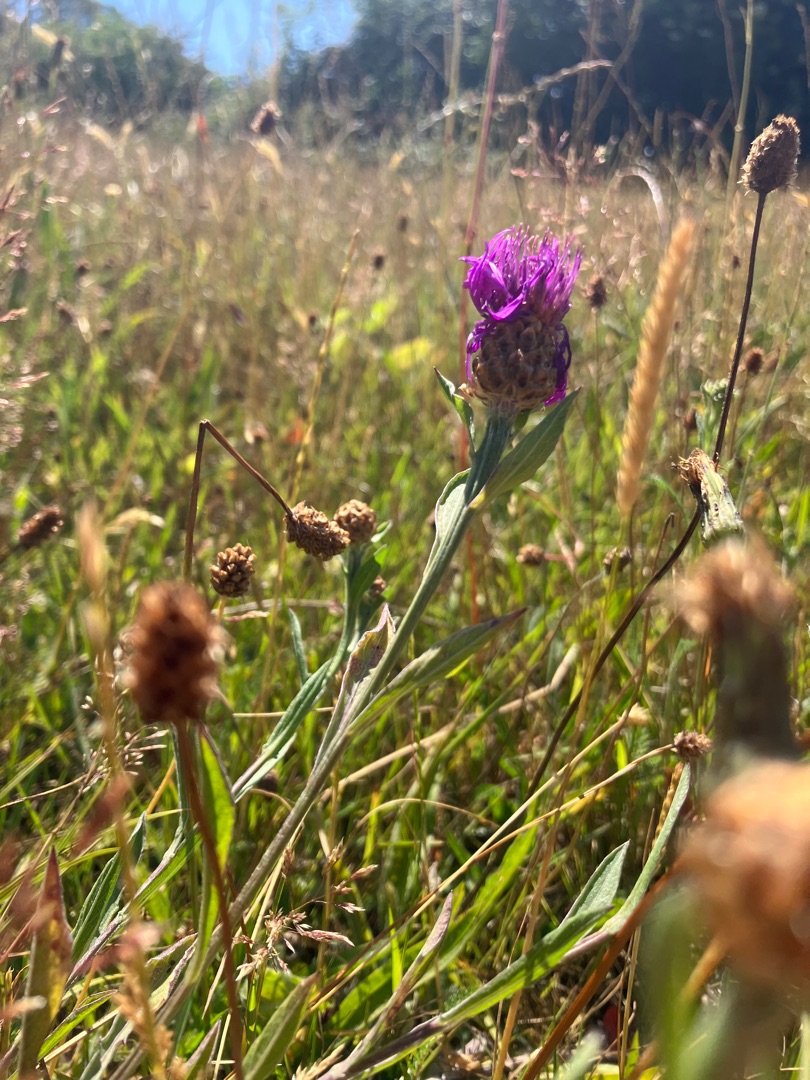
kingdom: Plantae
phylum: Tracheophyta
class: Magnoliopsida
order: Asterales
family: Asteraceae
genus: Centaurea
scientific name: Centaurea jacea
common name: Almindelig knopurt
